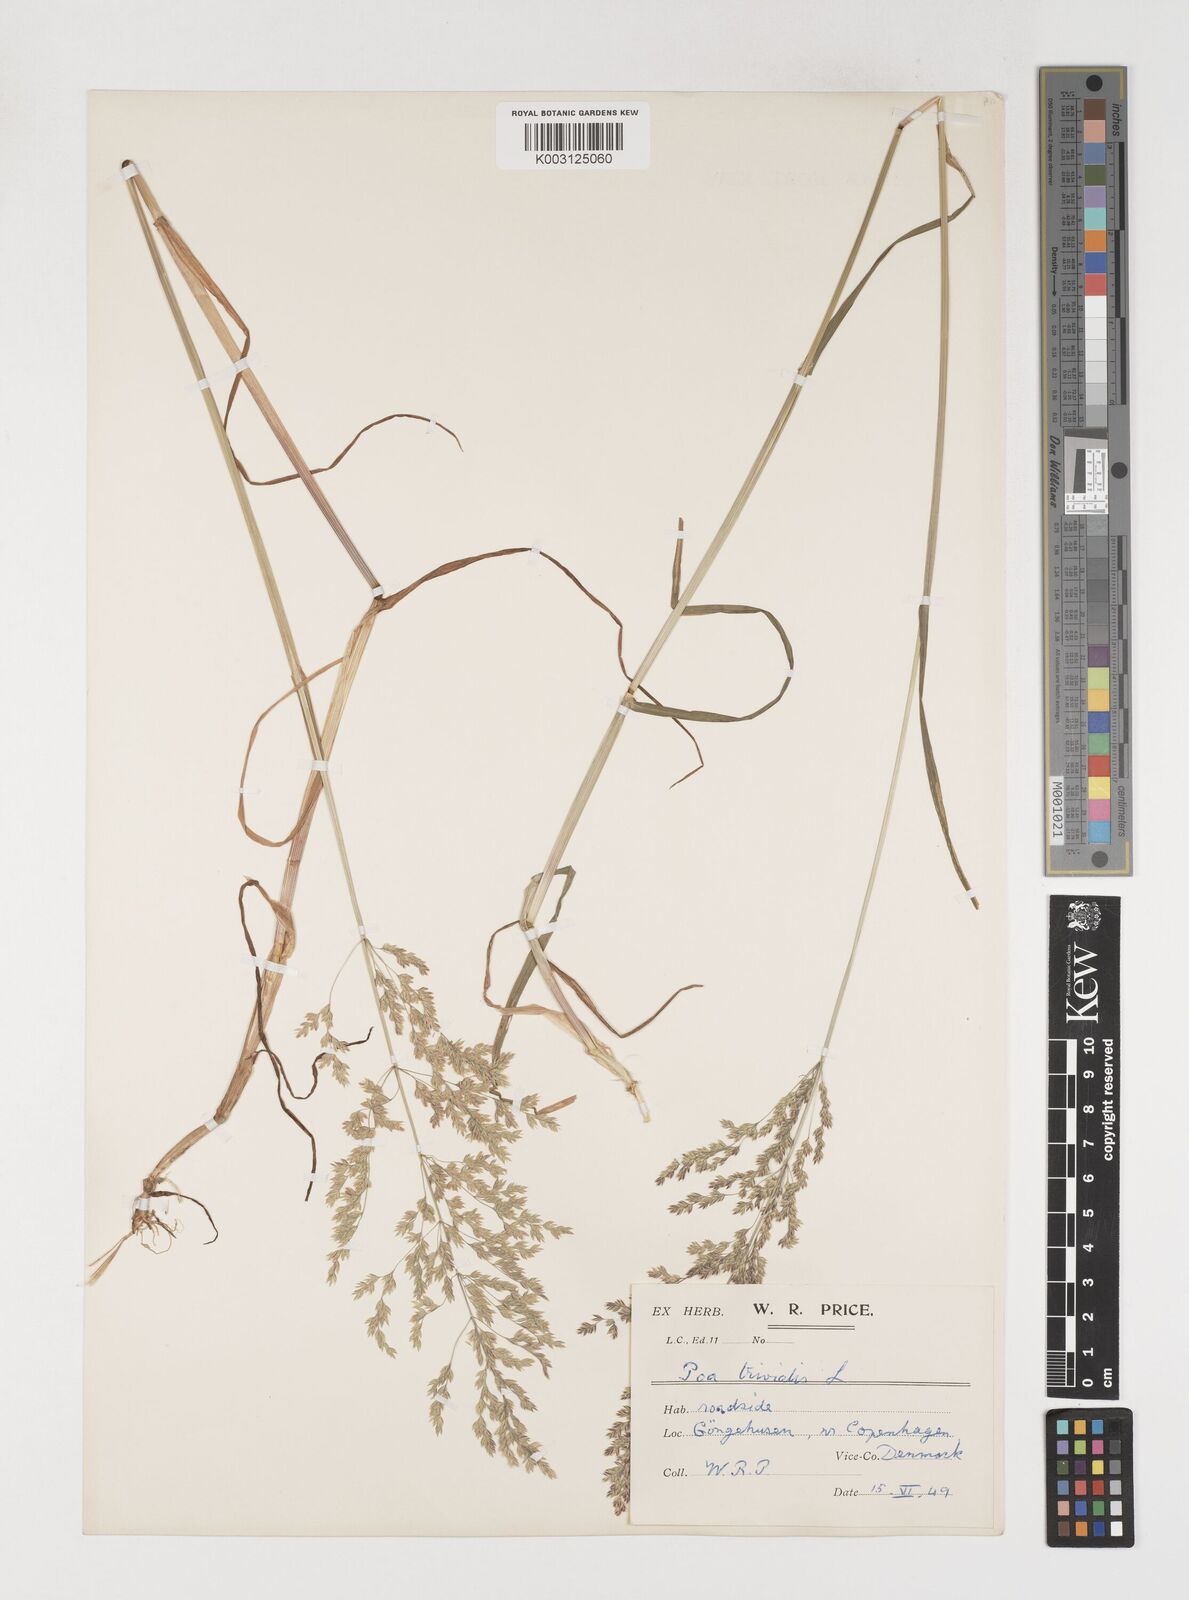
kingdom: Plantae
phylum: Tracheophyta
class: Liliopsida
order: Poales
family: Poaceae
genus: Poa
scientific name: Poa trivialis
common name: Rough bluegrass
